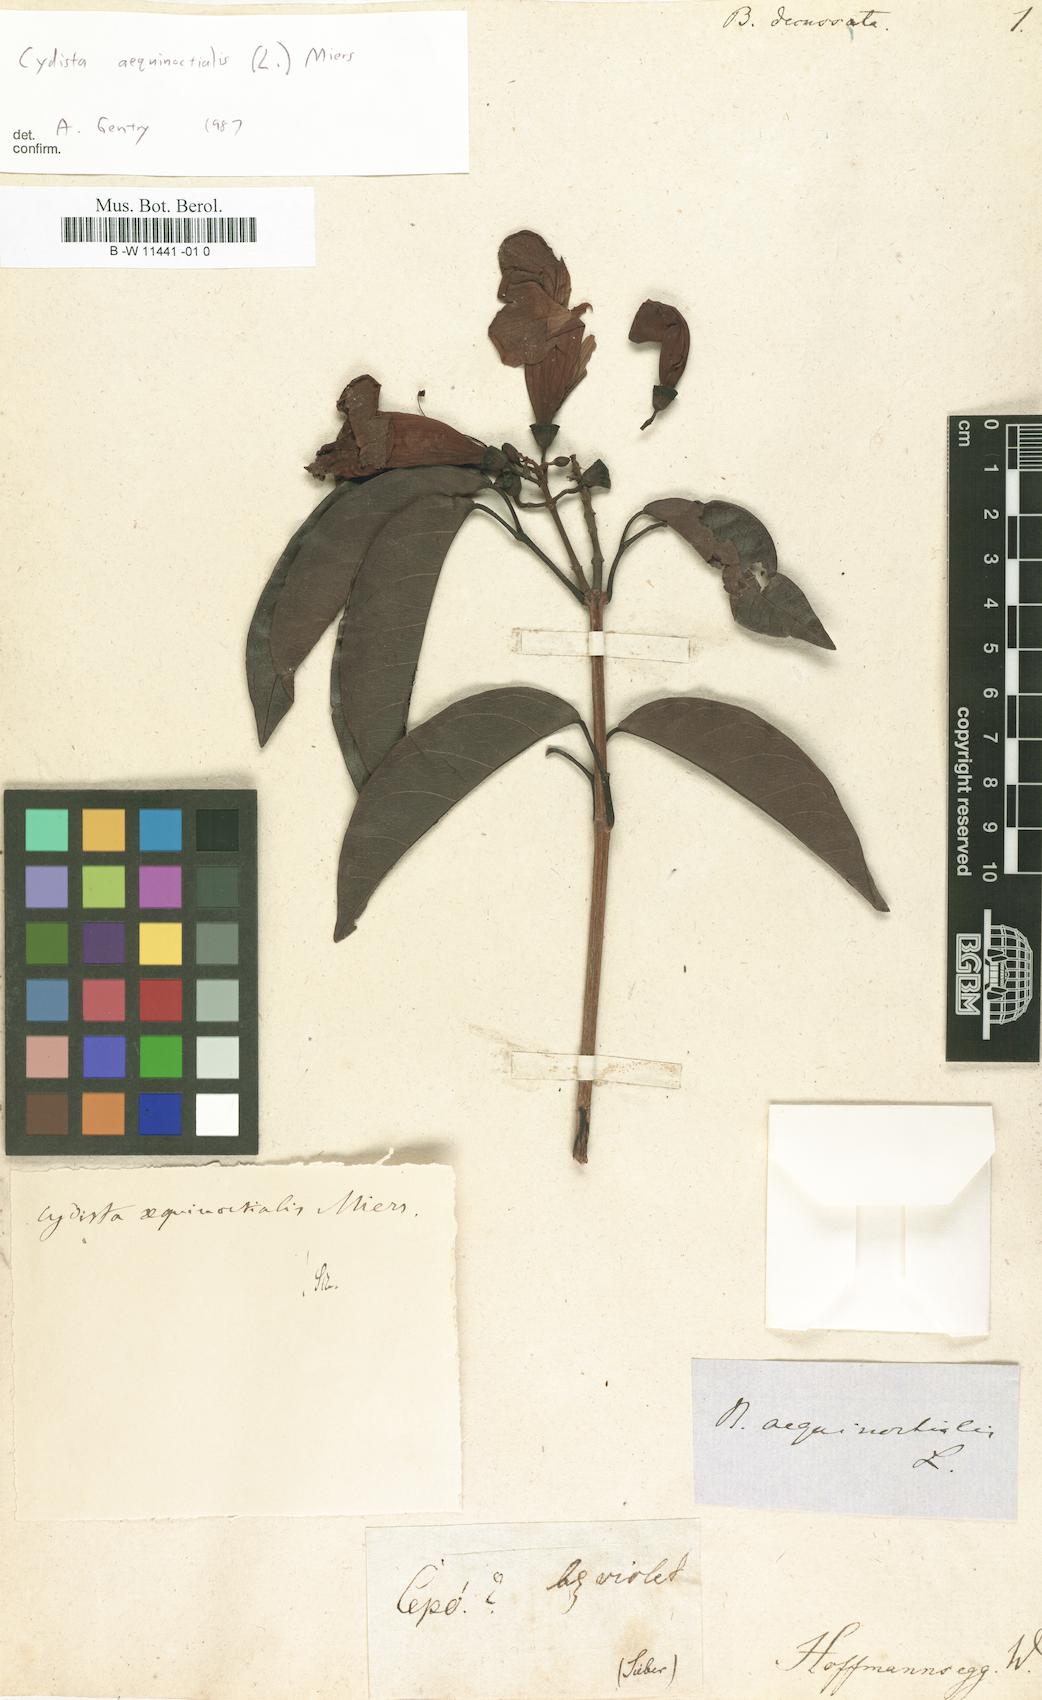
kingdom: Plantae
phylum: Tracheophyta
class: Magnoliopsida
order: Lamiales
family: Bignoniaceae
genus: Bignonia
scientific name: Bignonia
